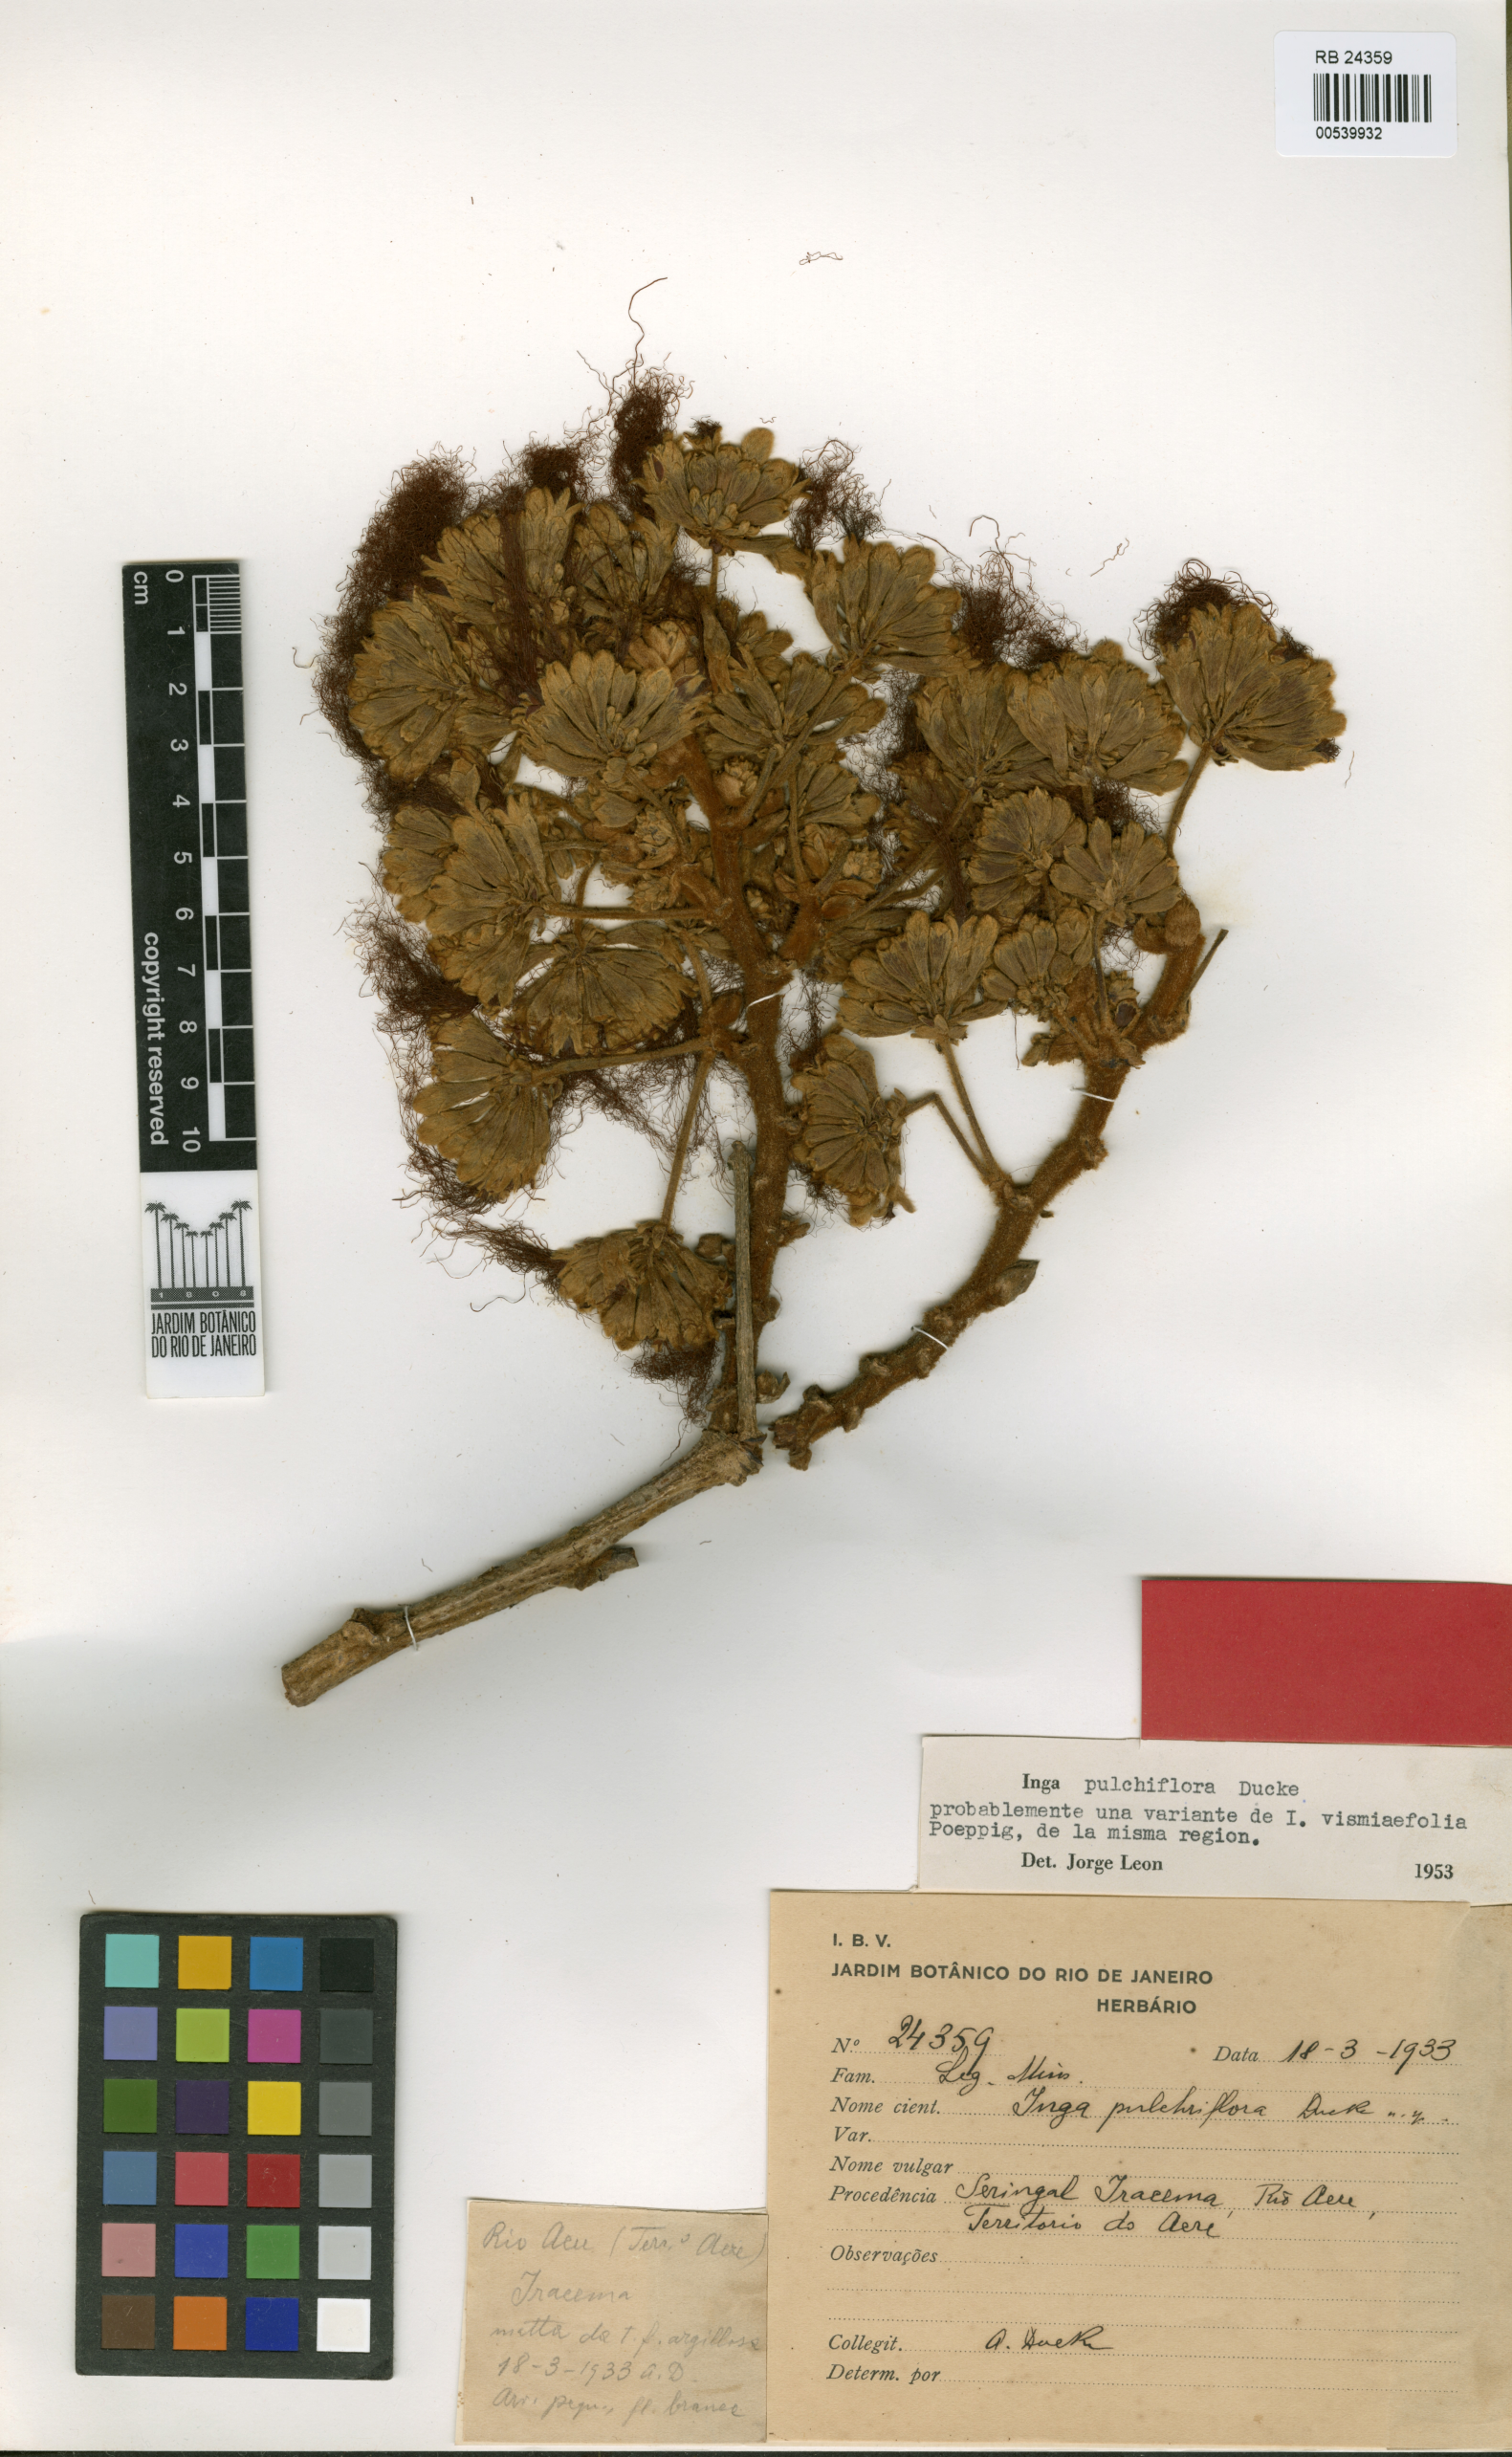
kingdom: Plantae
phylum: Tracheophyta
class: Magnoliopsida
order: Fabales
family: Fabaceae
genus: Inga
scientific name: Inga vismiifolia
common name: Howler monkey inga
